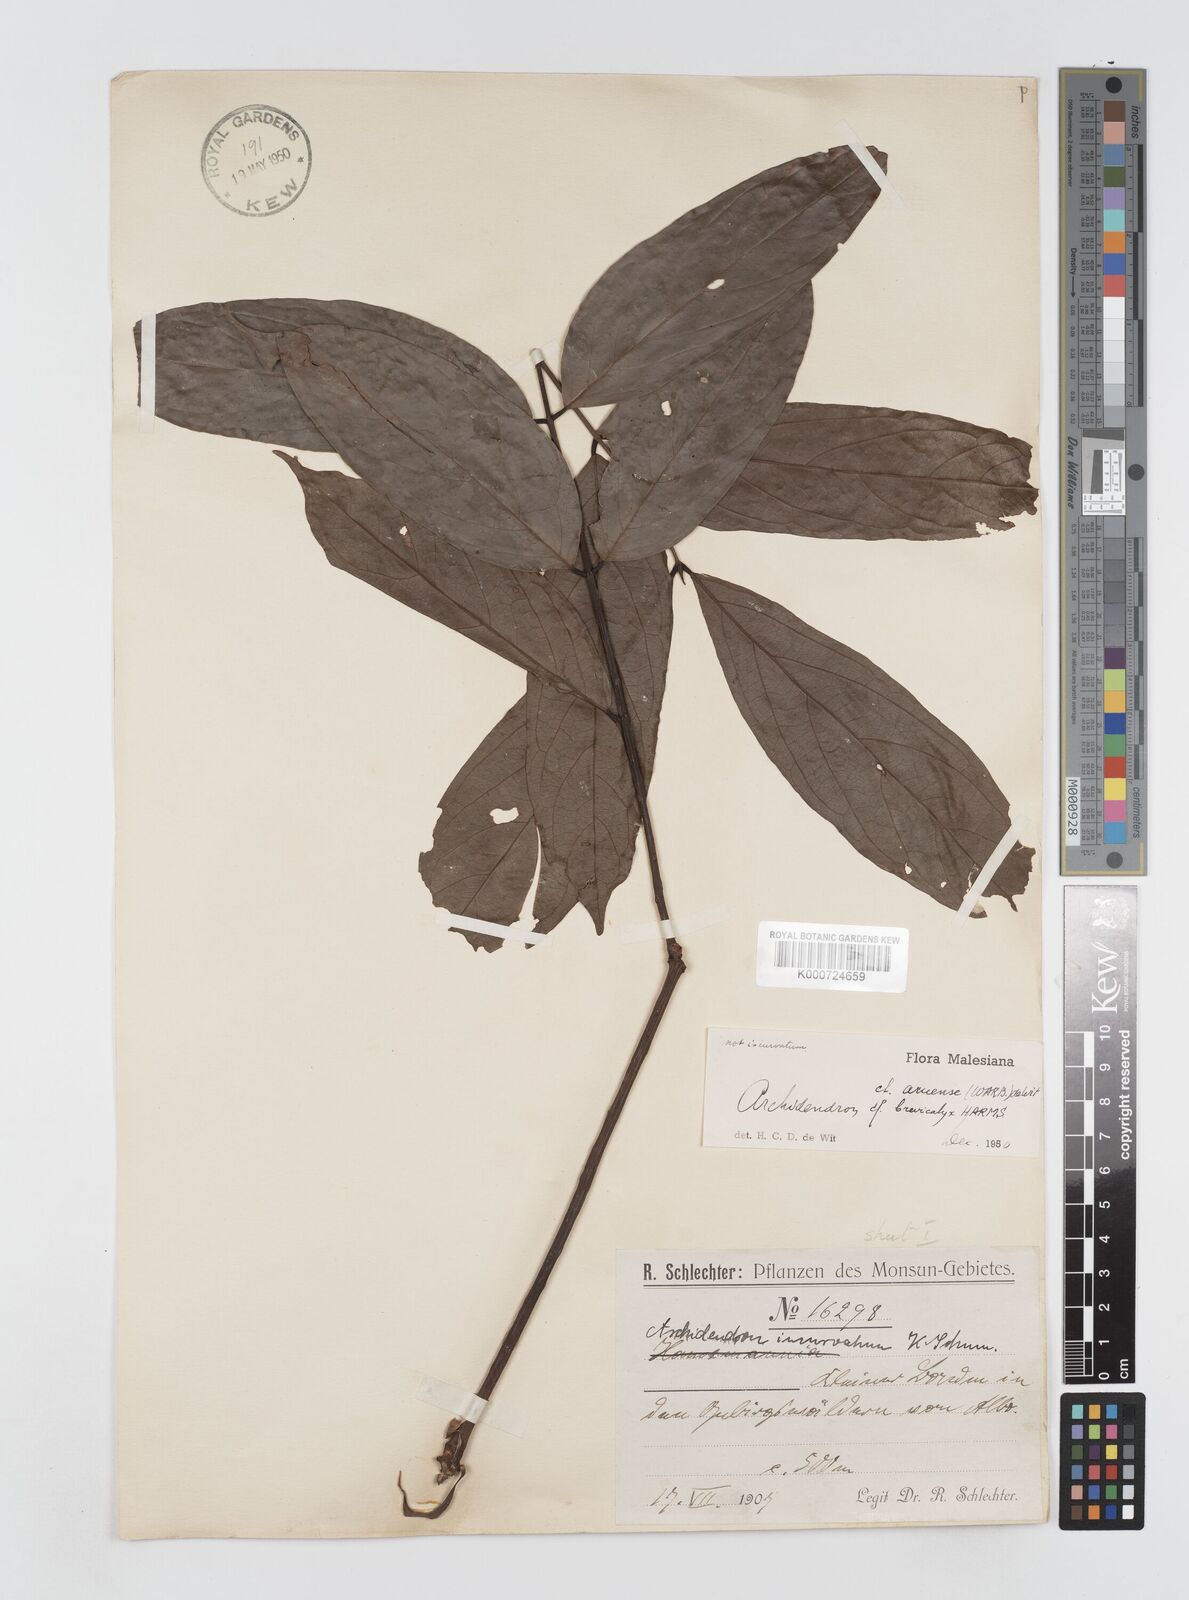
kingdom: Plantae
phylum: Tracheophyta
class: Magnoliopsida
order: Fabales
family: Fabaceae
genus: Archidendron
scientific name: Archidendron aruense
